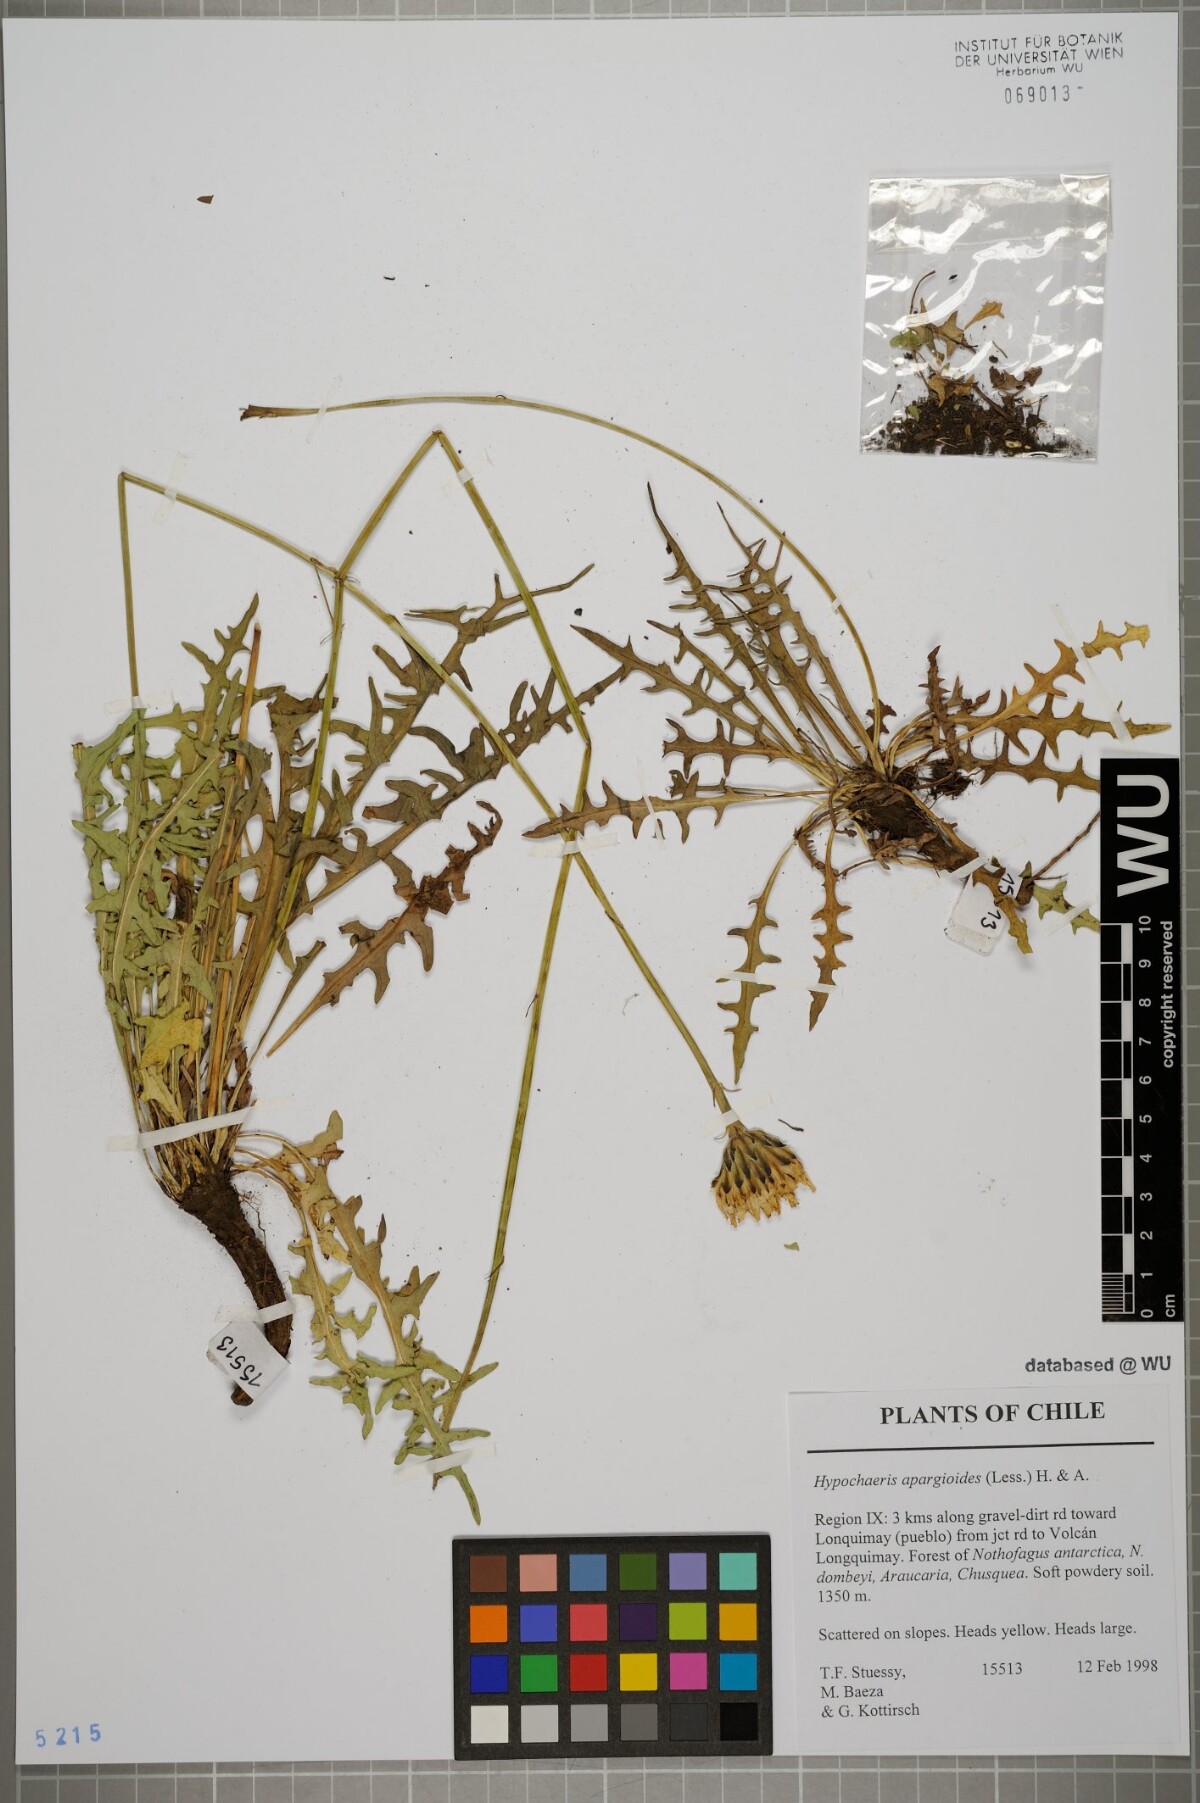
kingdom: Plantae
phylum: Tracheophyta
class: Magnoliopsida
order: Asterales
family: Asteraceae
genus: Hypochaeris
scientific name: Hypochaeris apargioides
